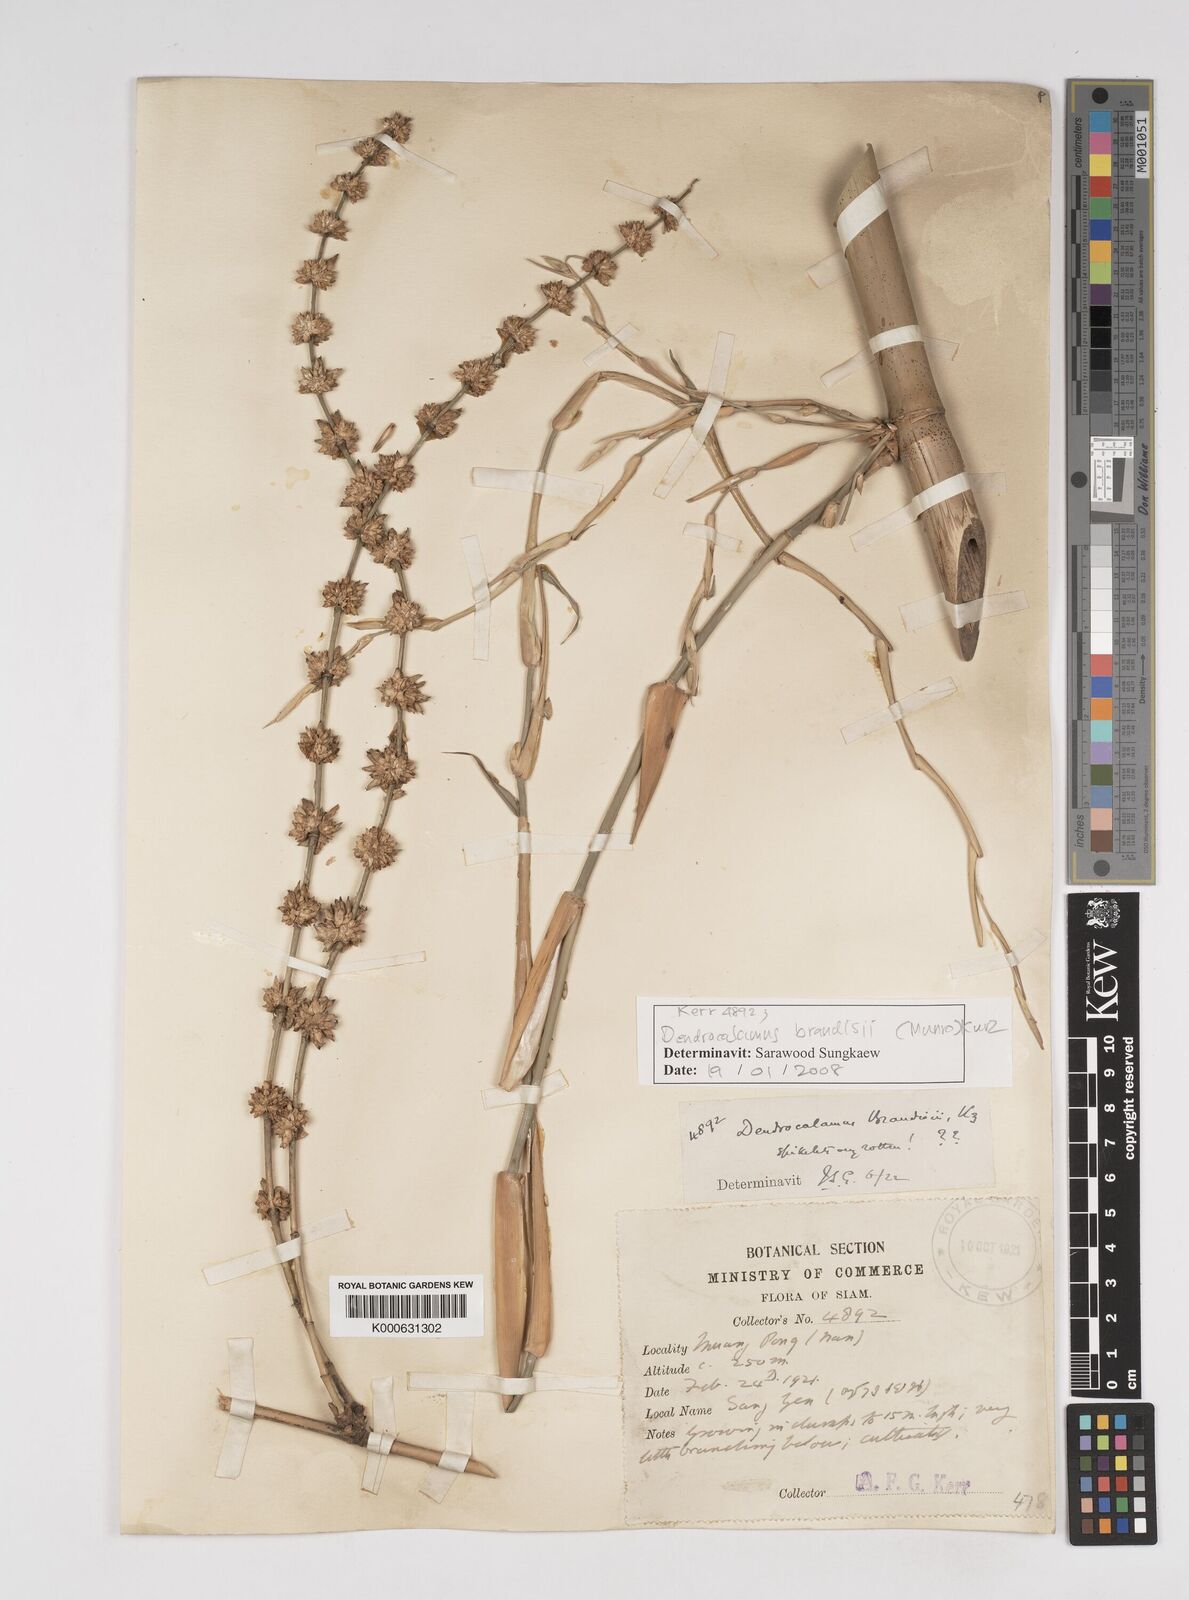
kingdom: Plantae
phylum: Tracheophyta
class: Liliopsida
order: Poales
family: Poaceae
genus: Dendrocalamus
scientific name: Dendrocalamus brandisii
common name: Velvetleaf bamboo
